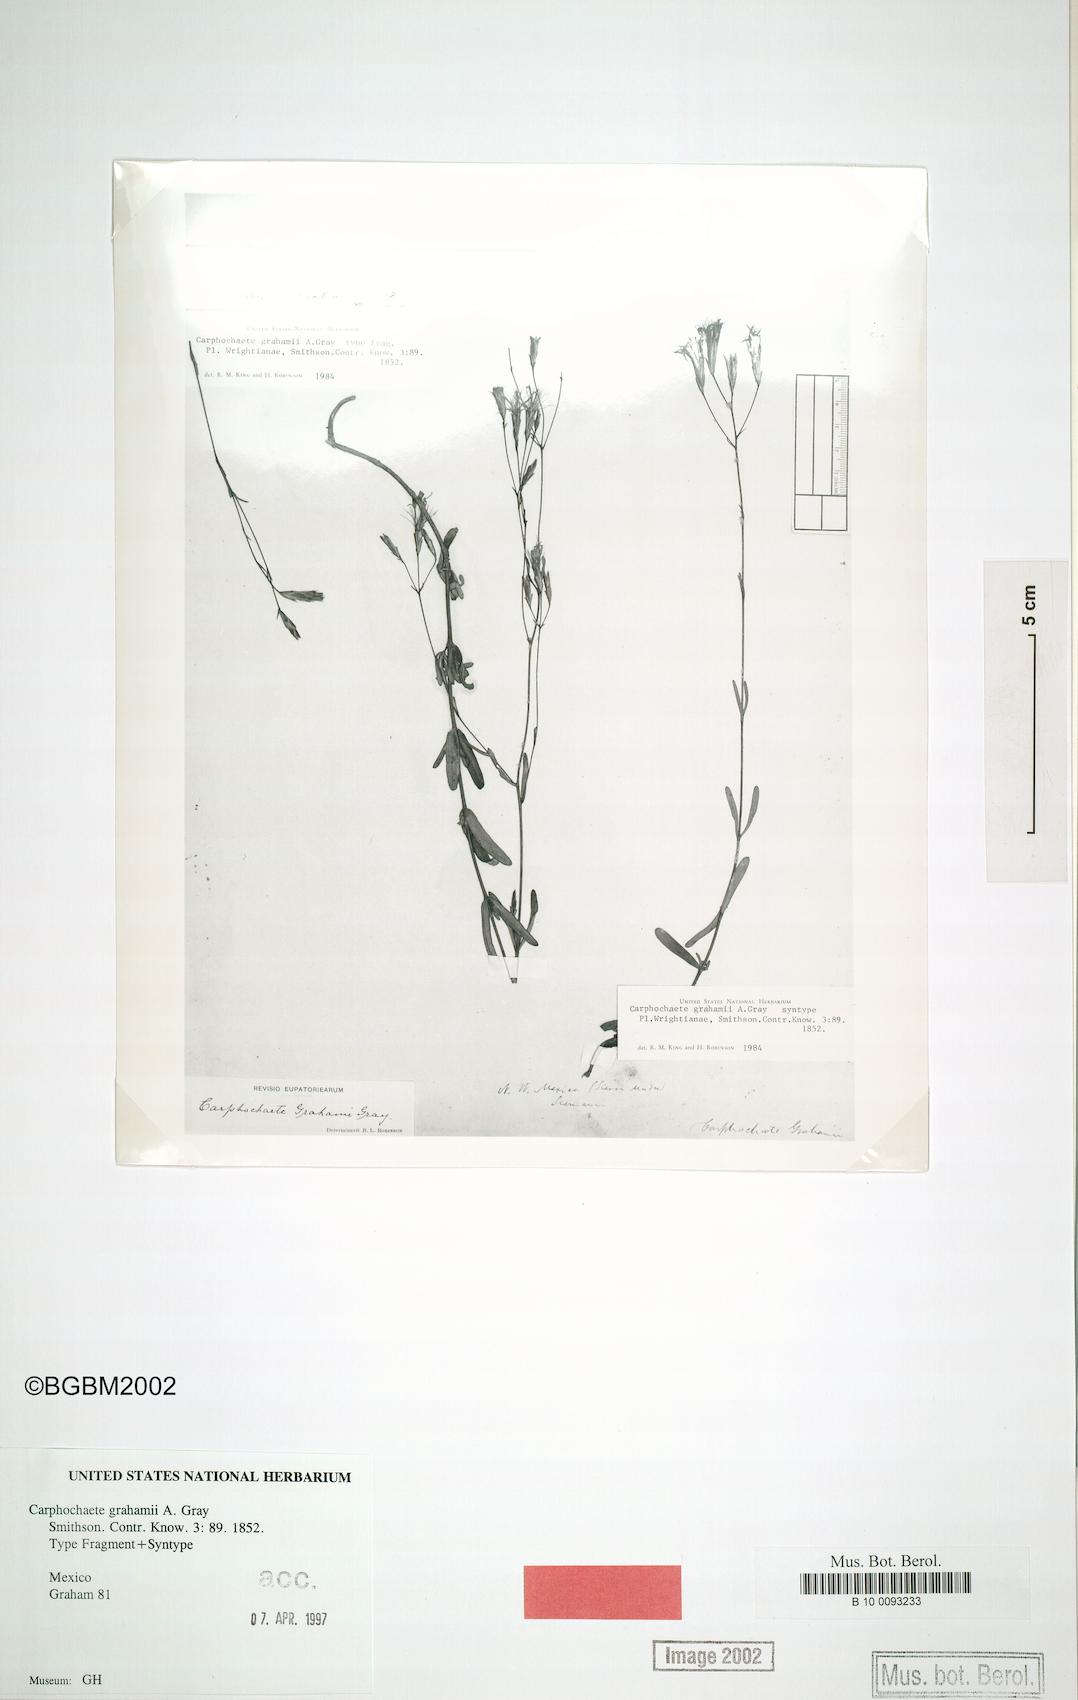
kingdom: Plantae
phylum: Tracheophyta
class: Magnoliopsida
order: Asterales
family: Asteraceae
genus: Carphochaete
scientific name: Carphochaete grahamii
